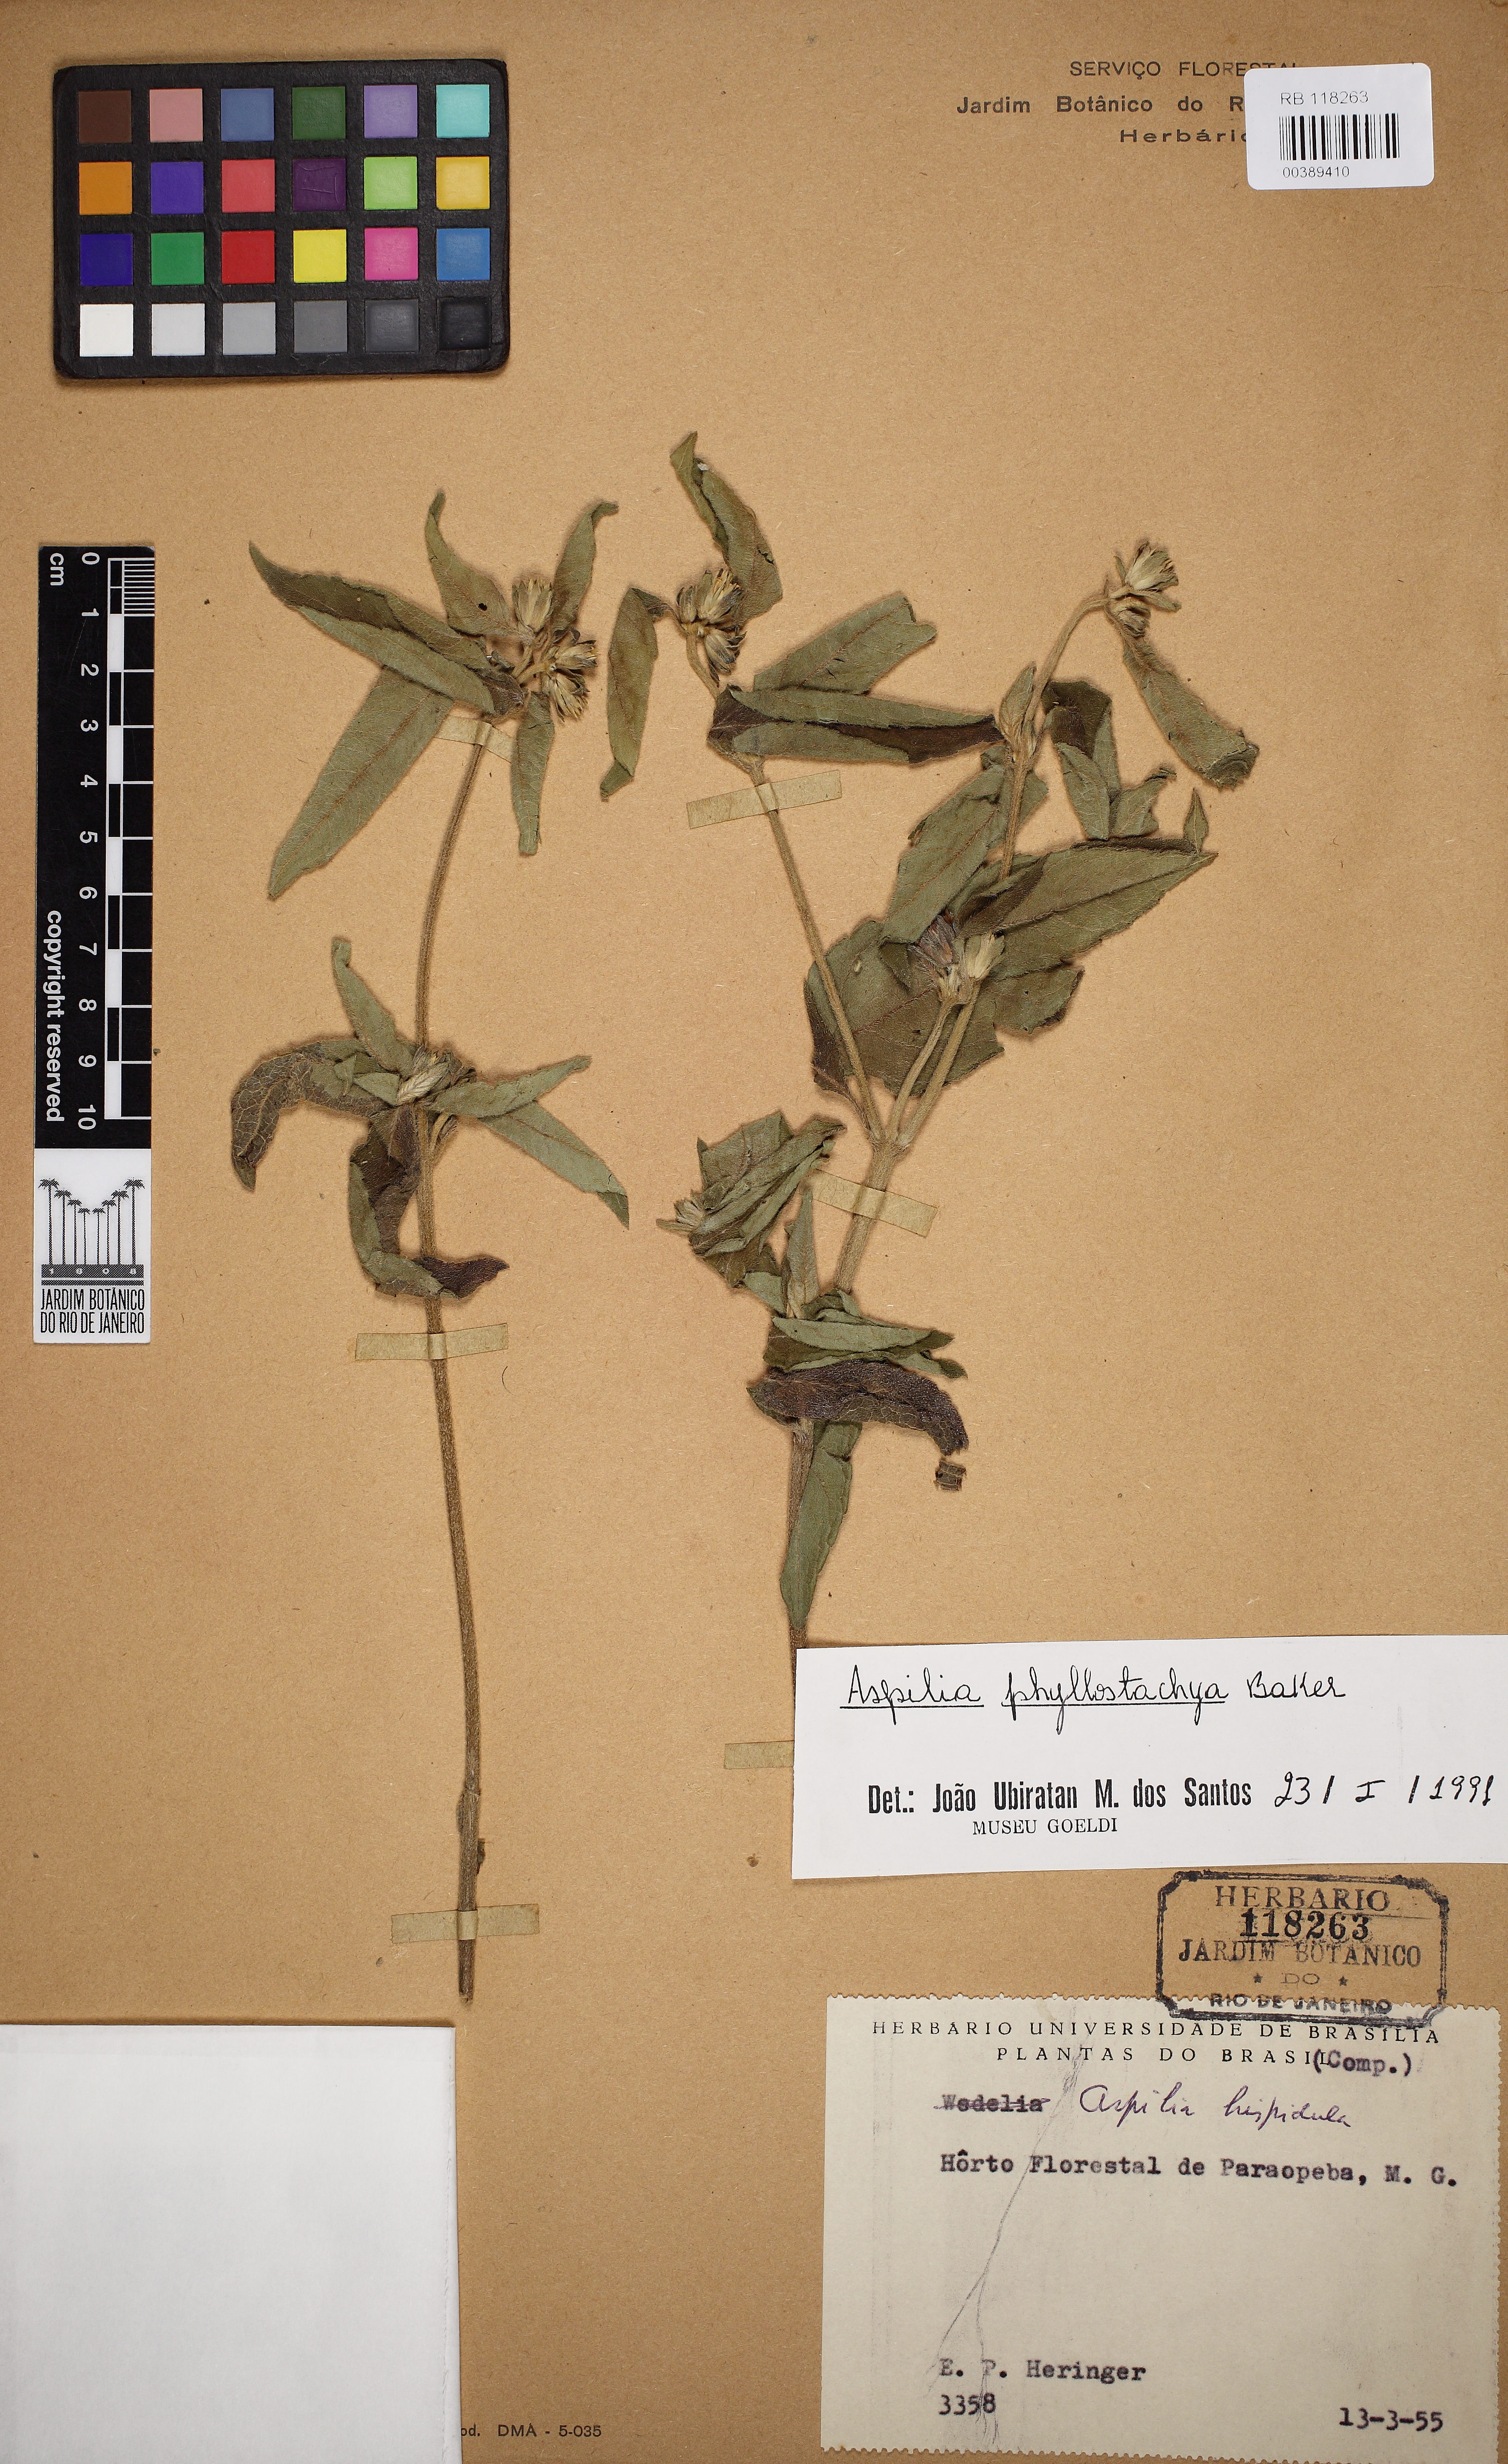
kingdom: Plantae
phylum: Tracheophyta
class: Magnoliopsida
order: Asterales
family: Asteraceae
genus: Wedelia
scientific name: Wedelia phyllostachya
